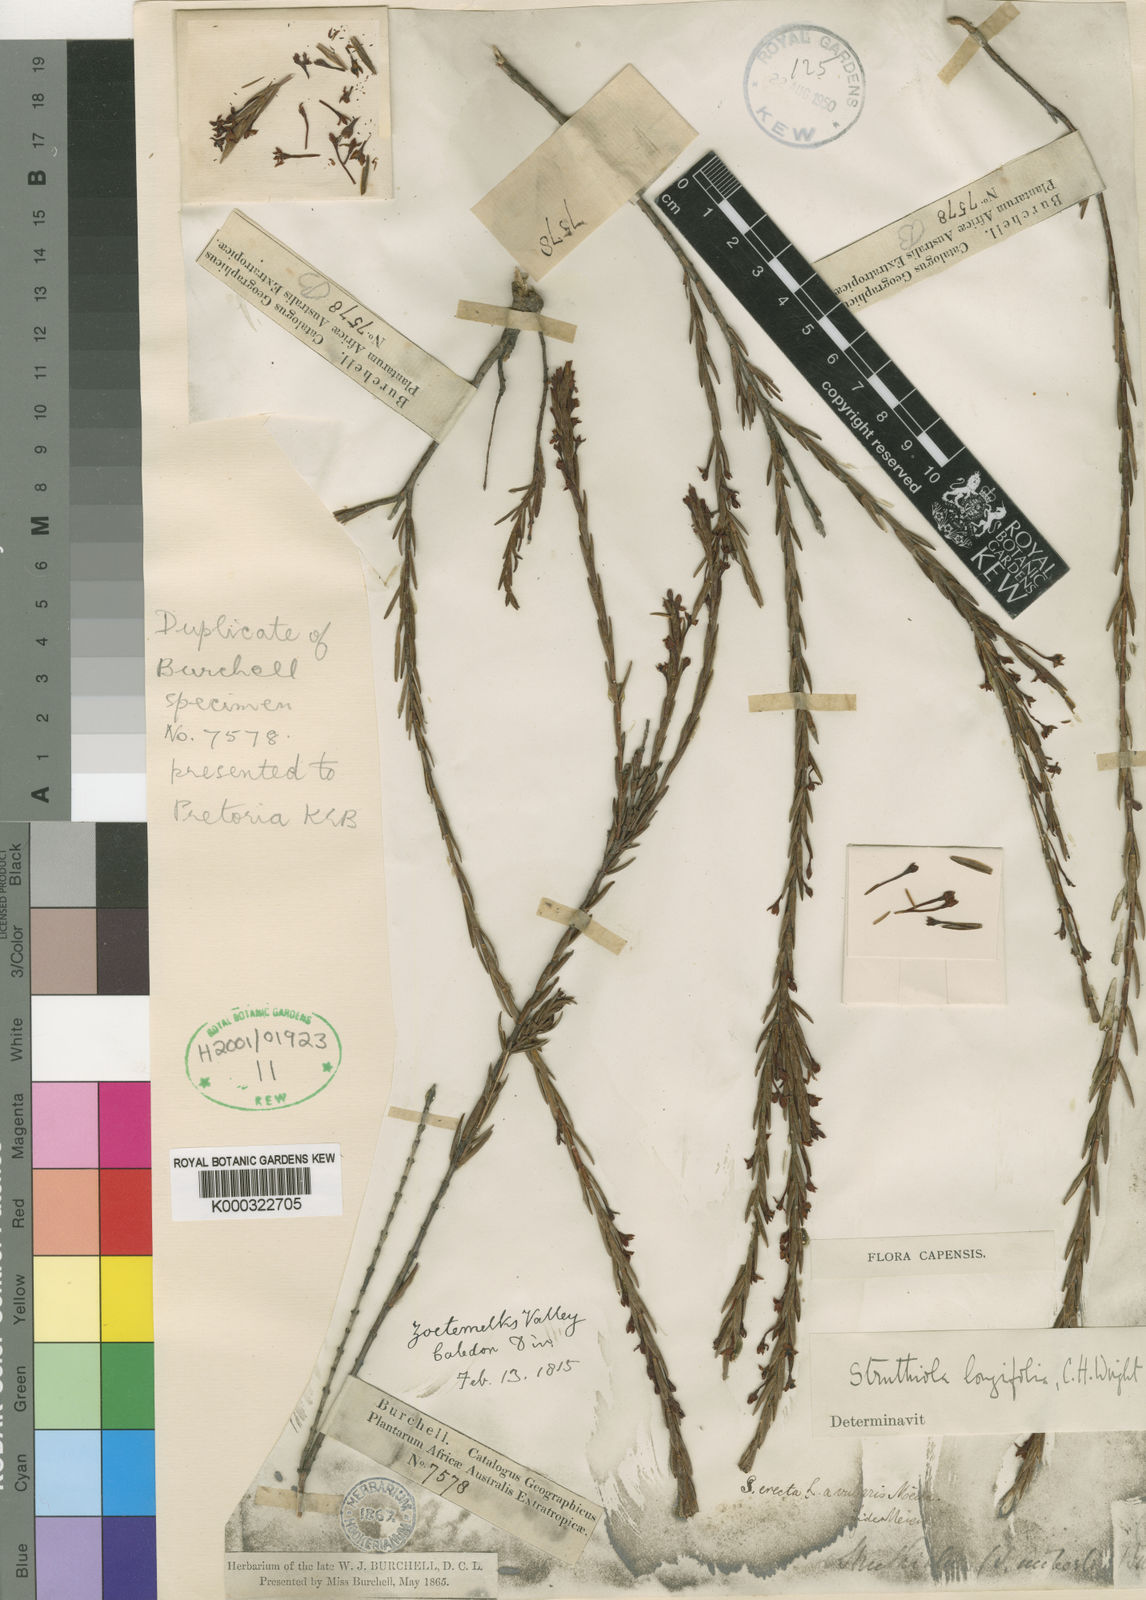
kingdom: Plantae
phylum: Tracheophyta
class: Magnoliopsida
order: Malvales
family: Thymelaeaceae
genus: Struthiola
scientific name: Struthiola dodecandra
